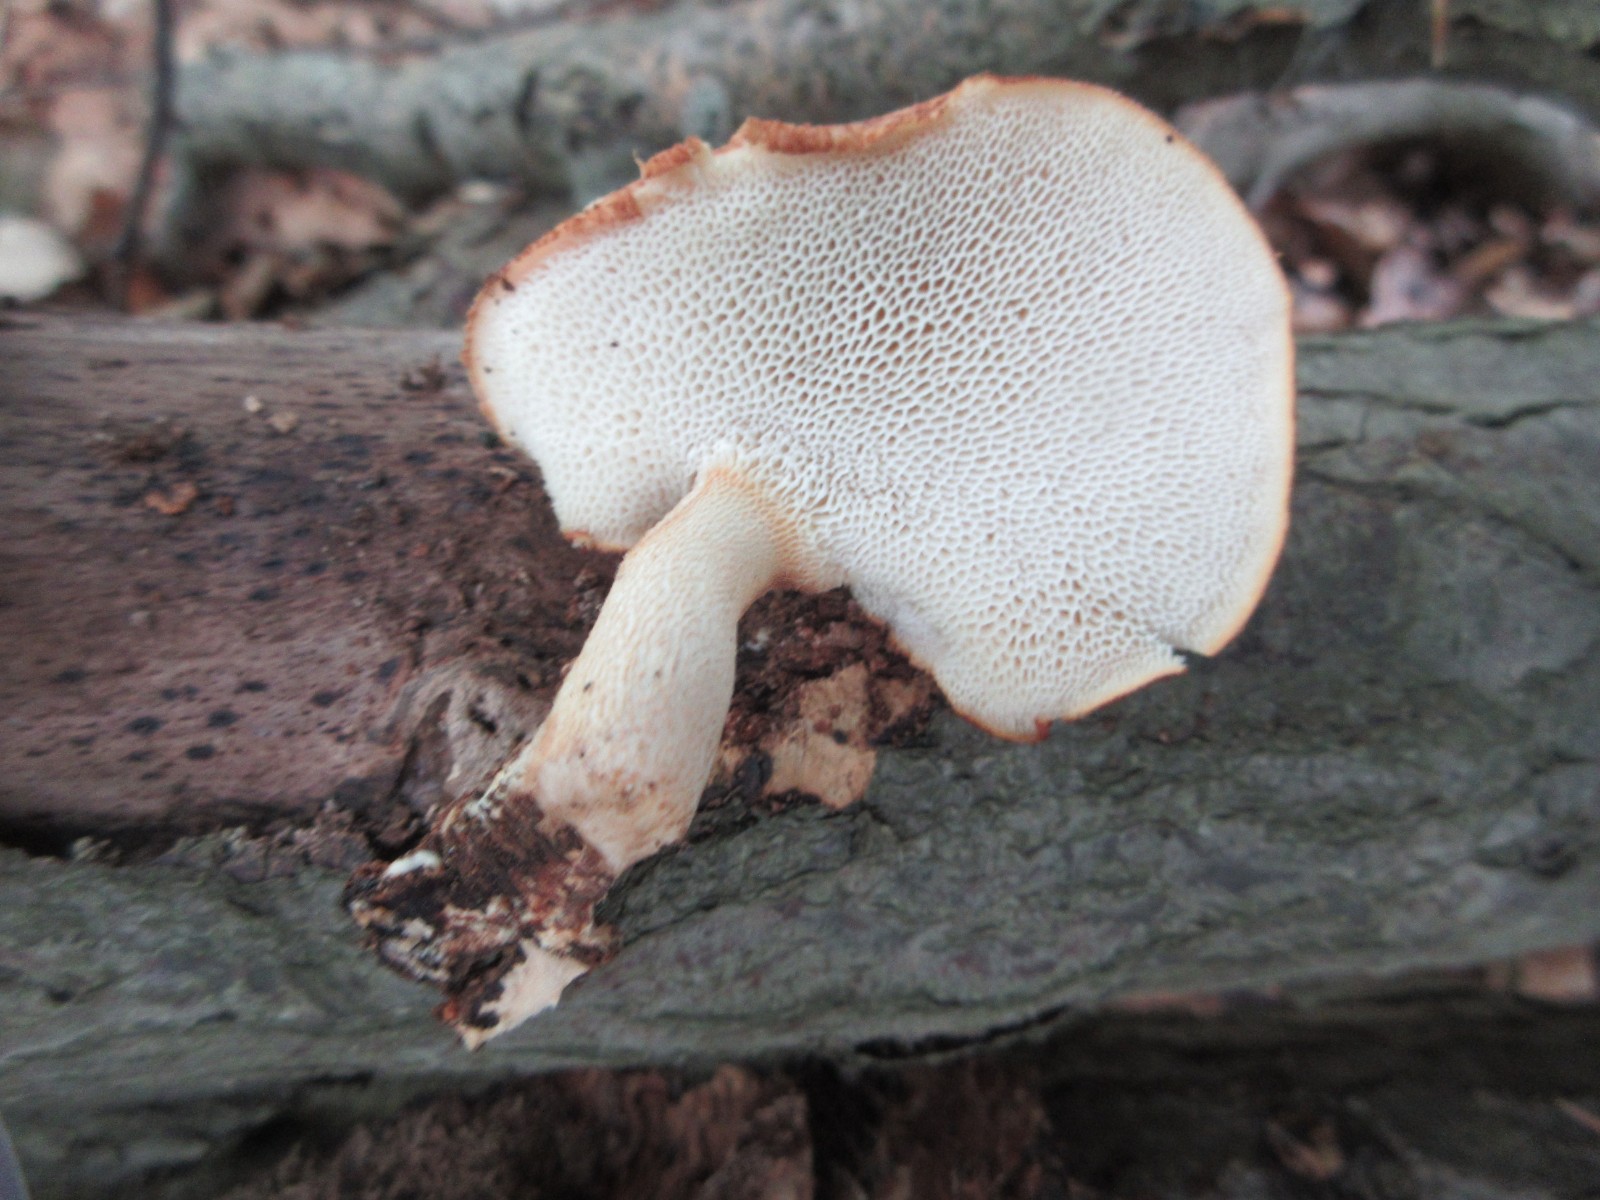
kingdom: Fungi
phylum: Basidiomycota
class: Agaricomycetes
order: Polyporales
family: Polyporaceae
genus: Polyporus
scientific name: Polyporus tuberaster
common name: knoldet stilkporesvamp
